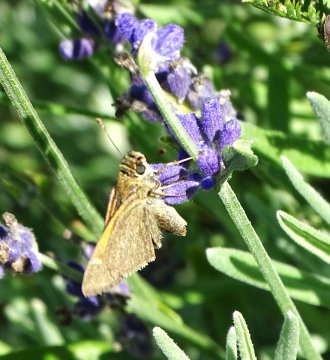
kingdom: Animalia
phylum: Arthropoda
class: Insecta
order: Lepidoptera
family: Hesperiidae
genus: Polites
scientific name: Polites themistocles
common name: Tawny-edged Skipper
